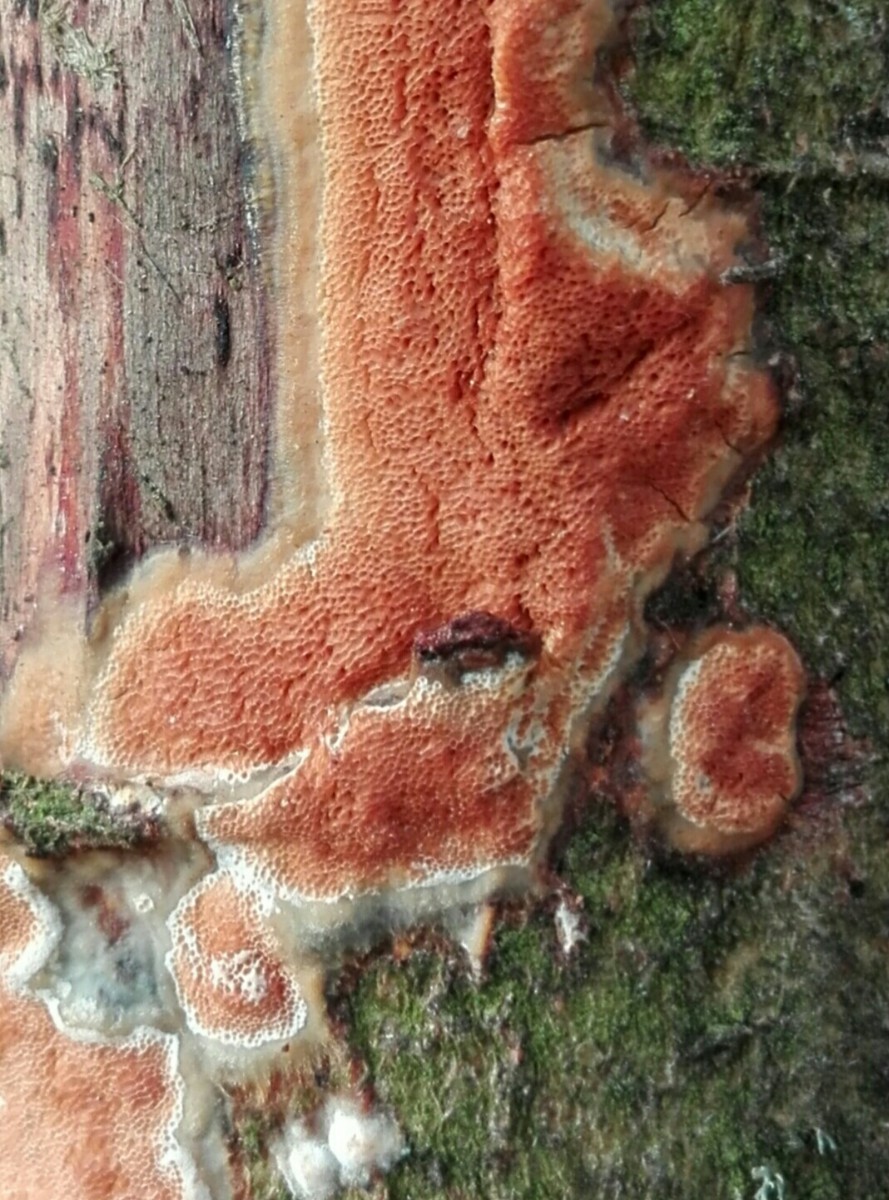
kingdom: Fungi
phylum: Basidiomycota
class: Agaricomycetes
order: Polyporales
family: Irpicaceae
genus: Resiniporus
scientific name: Resiniporus resinascens
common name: trist pastelporesvamp
